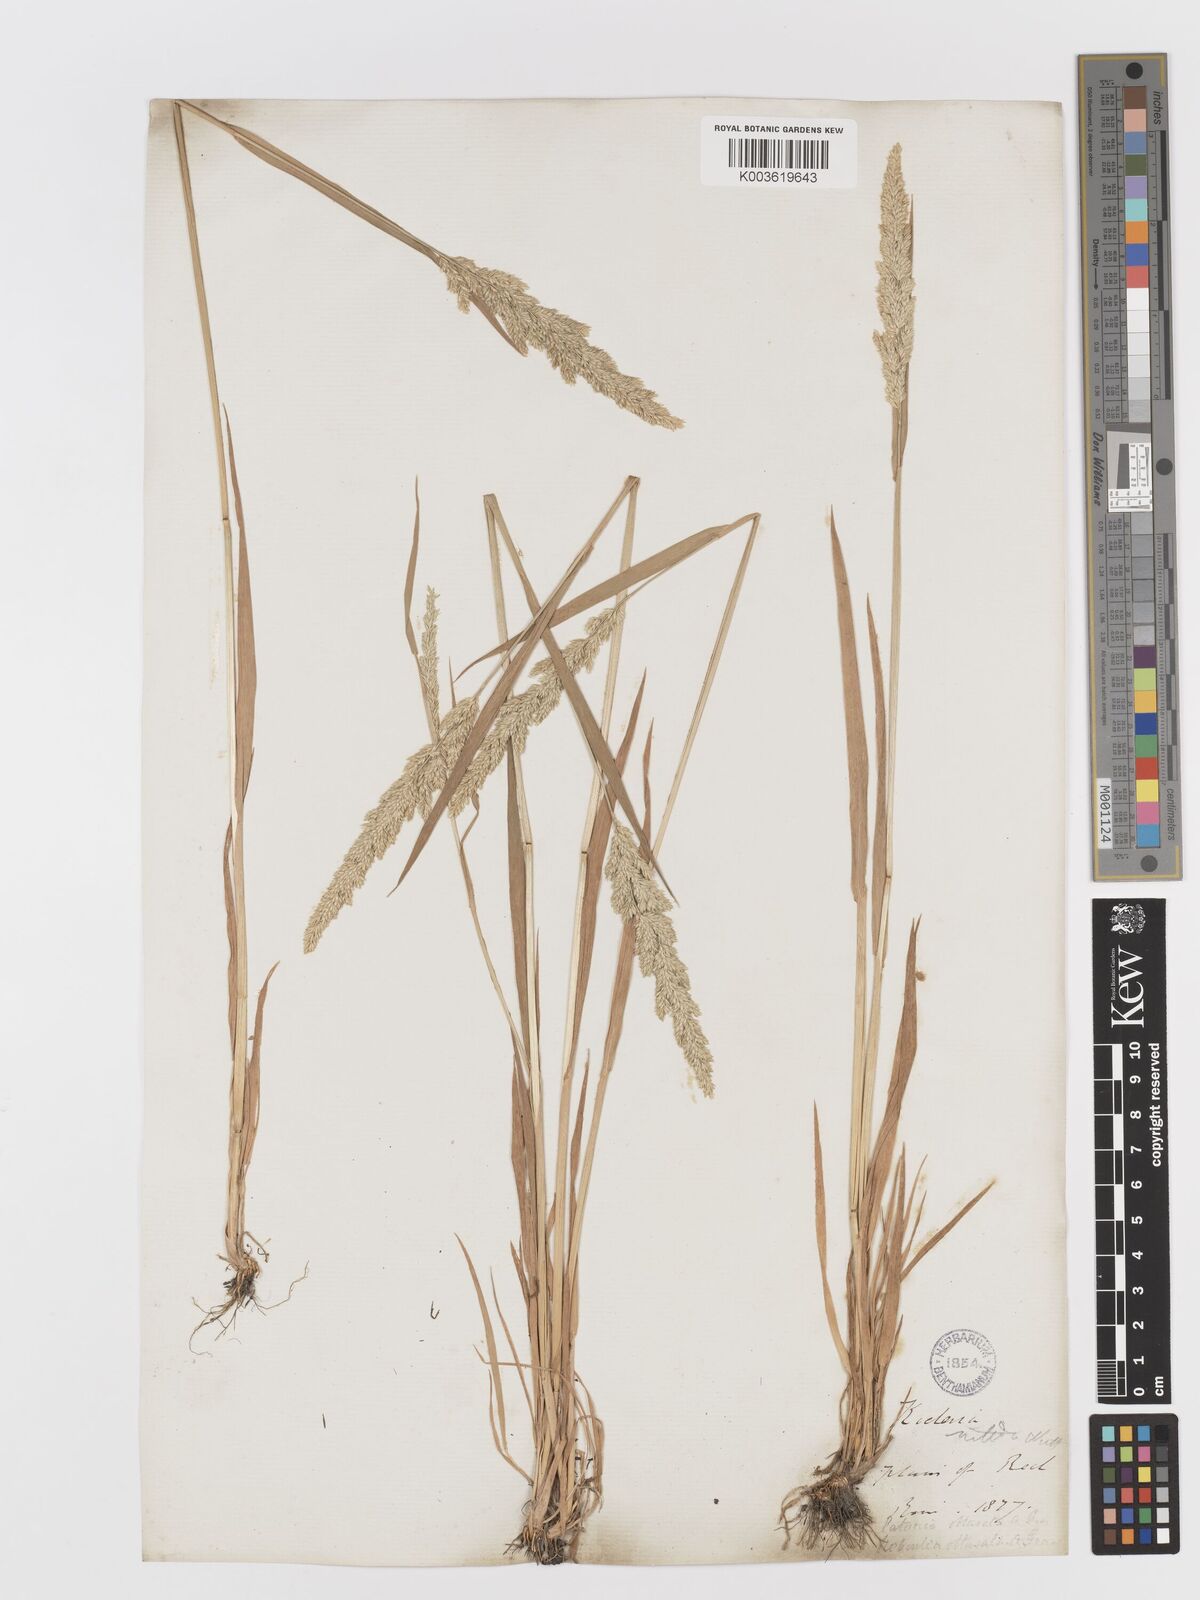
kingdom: Plantae
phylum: Tracheophyta
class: Liliopsida
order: Poales
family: Poaceae
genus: Sphenopholis
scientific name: Sphenopholis obtusata
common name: Prairie grass
